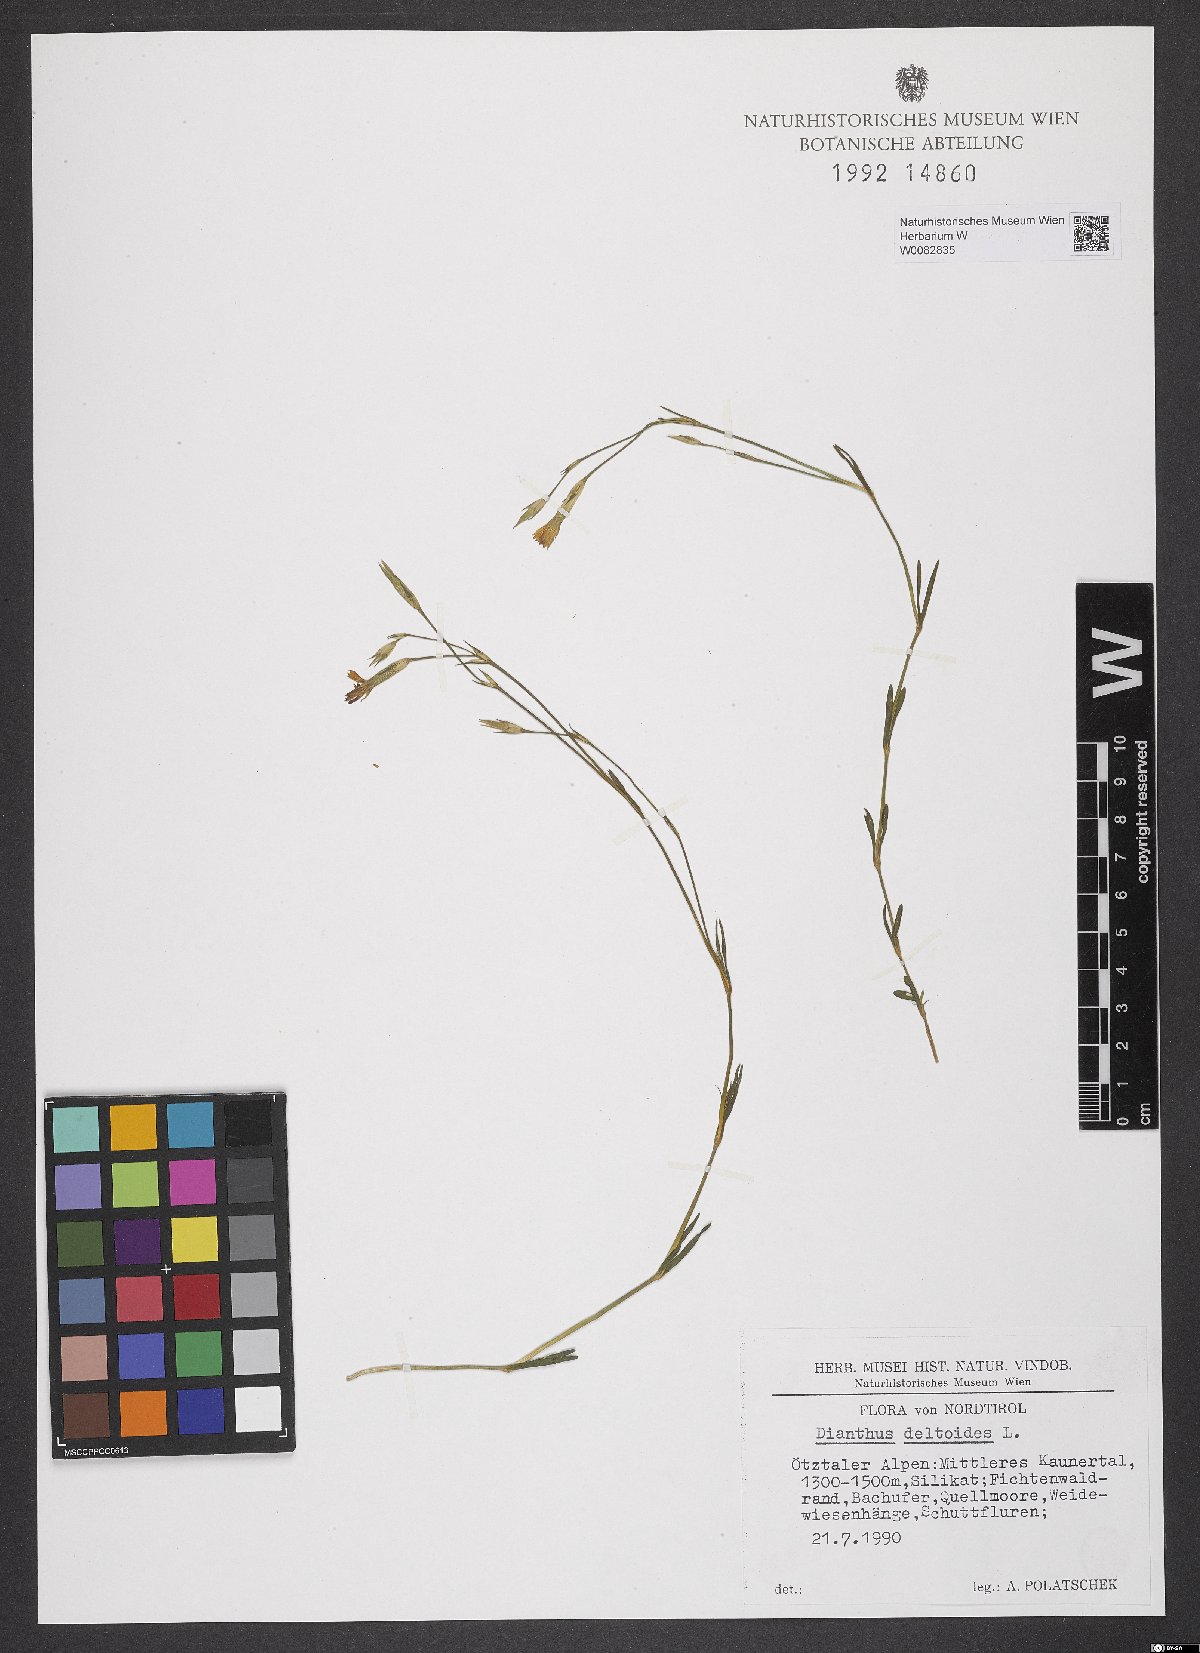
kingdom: Plantae
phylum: Tracheophyta
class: Magnoliopsida
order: Caryophyllales
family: Caryophyllaceae
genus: Dianthus
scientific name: Dianthus deltoides
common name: Maiden pink
